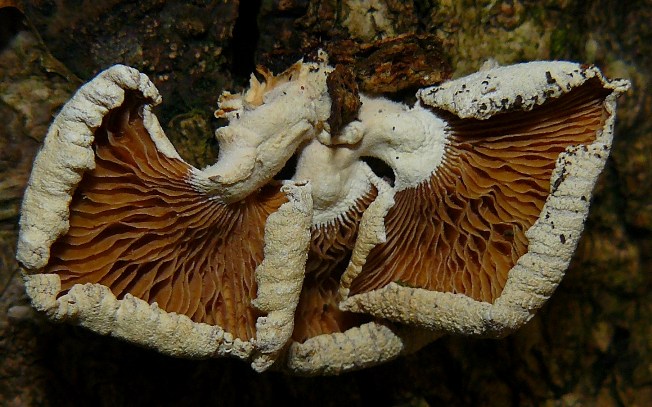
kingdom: Fungi
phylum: Basidiomycota
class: Agaricomycetes
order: Agaricales
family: Mycenaceae
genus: Panellus
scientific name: Panellus stipticus
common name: kliddet epaulethat
